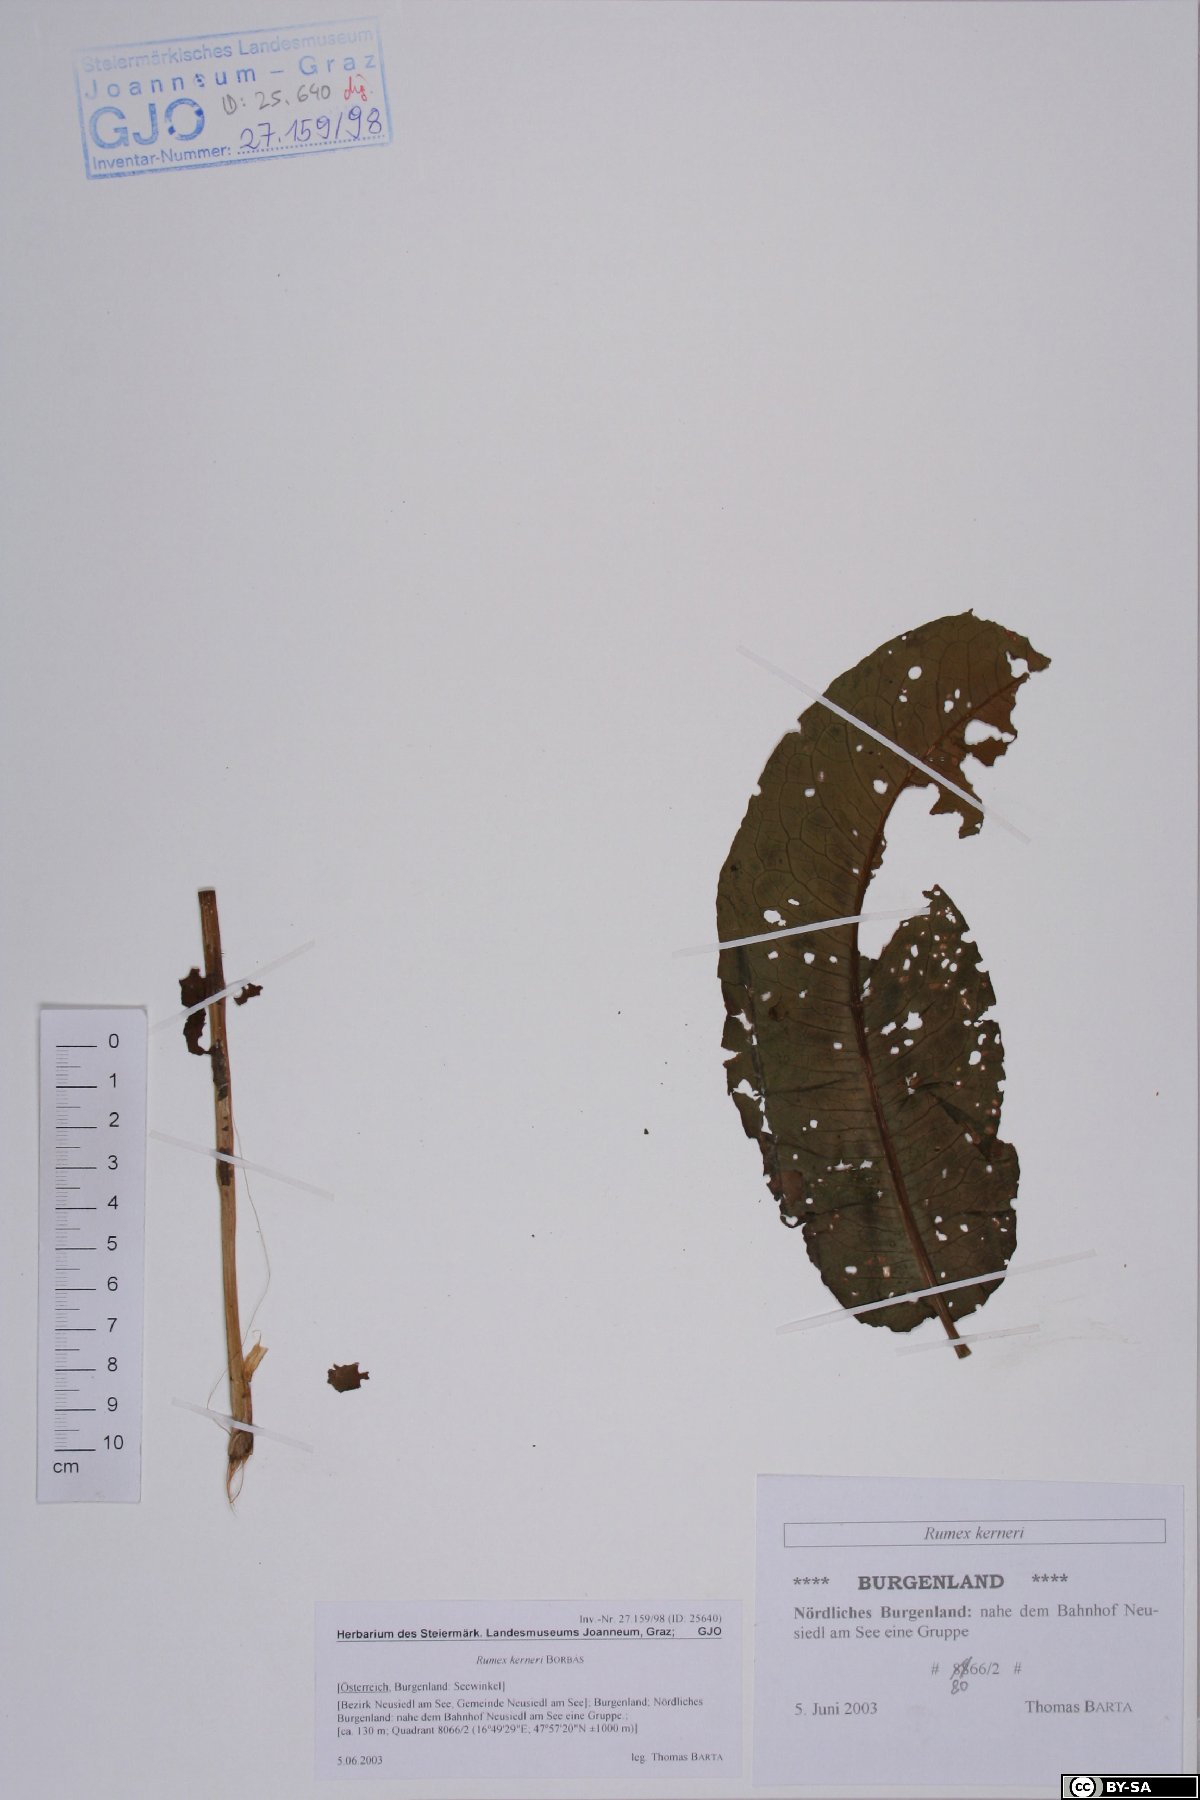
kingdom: Plantae
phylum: Tracheophyta
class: Magnoliopsida
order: Caryophyllales
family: Polygonaceae
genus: Rumex
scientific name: Rumex kerneri
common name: Kerner's dock
